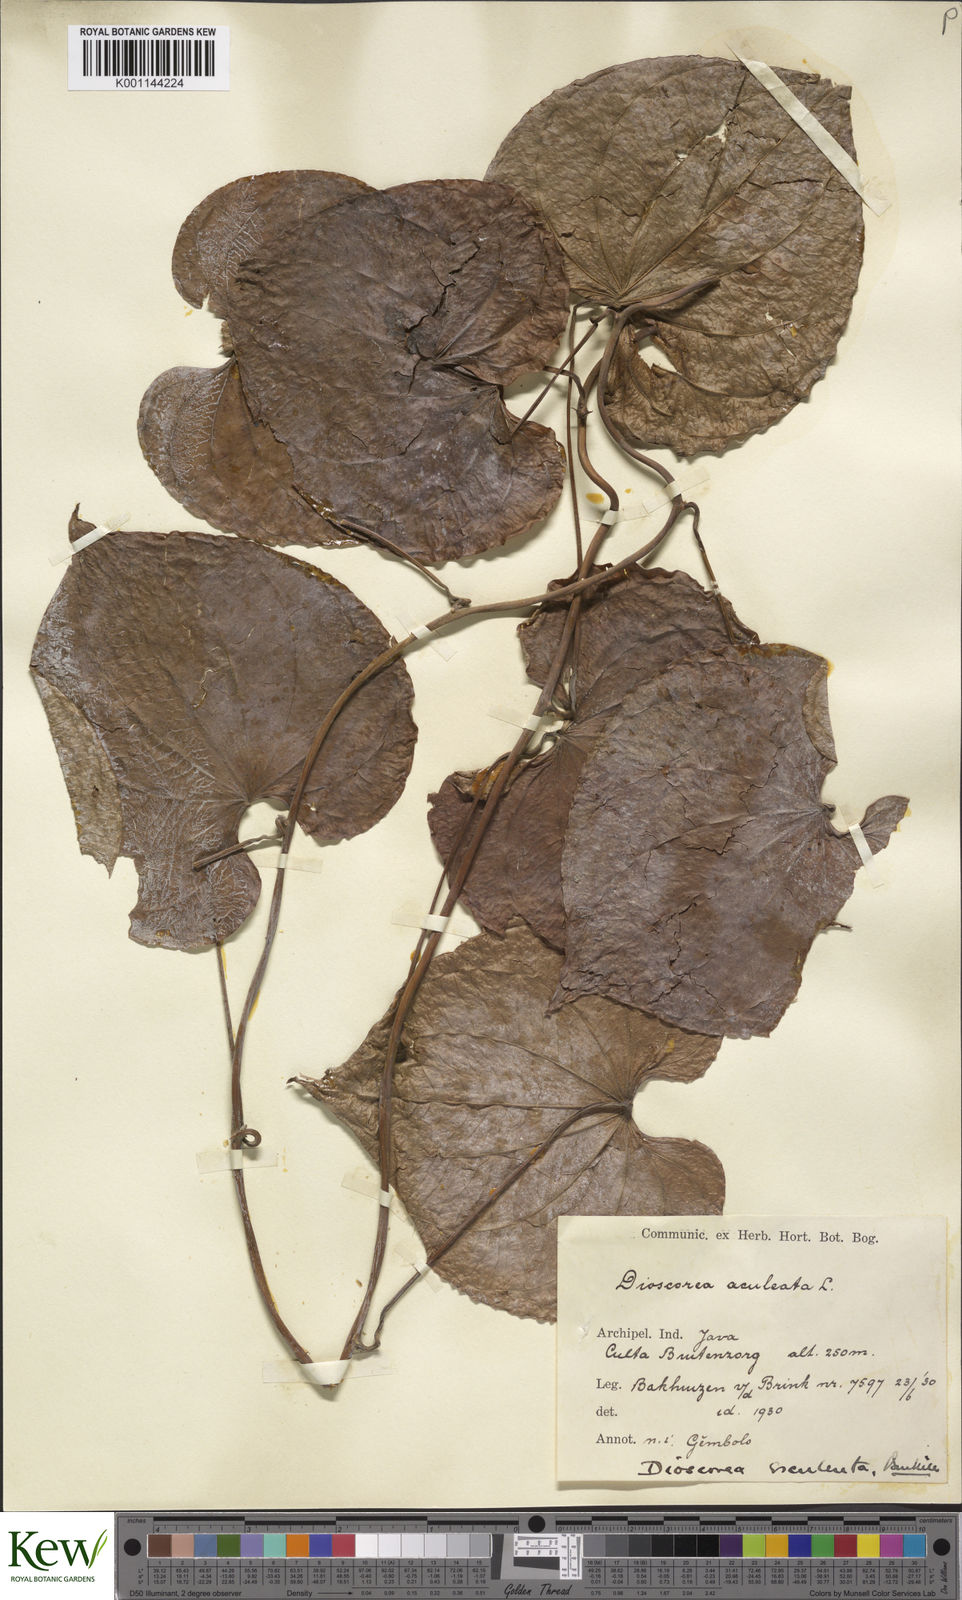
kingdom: Plantae
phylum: Tracheophyta
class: Liliopsida
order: Dioscoreales
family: Dioscoreaceae
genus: Dioscorea
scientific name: Dioscorea esculenta
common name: Chinese yam
